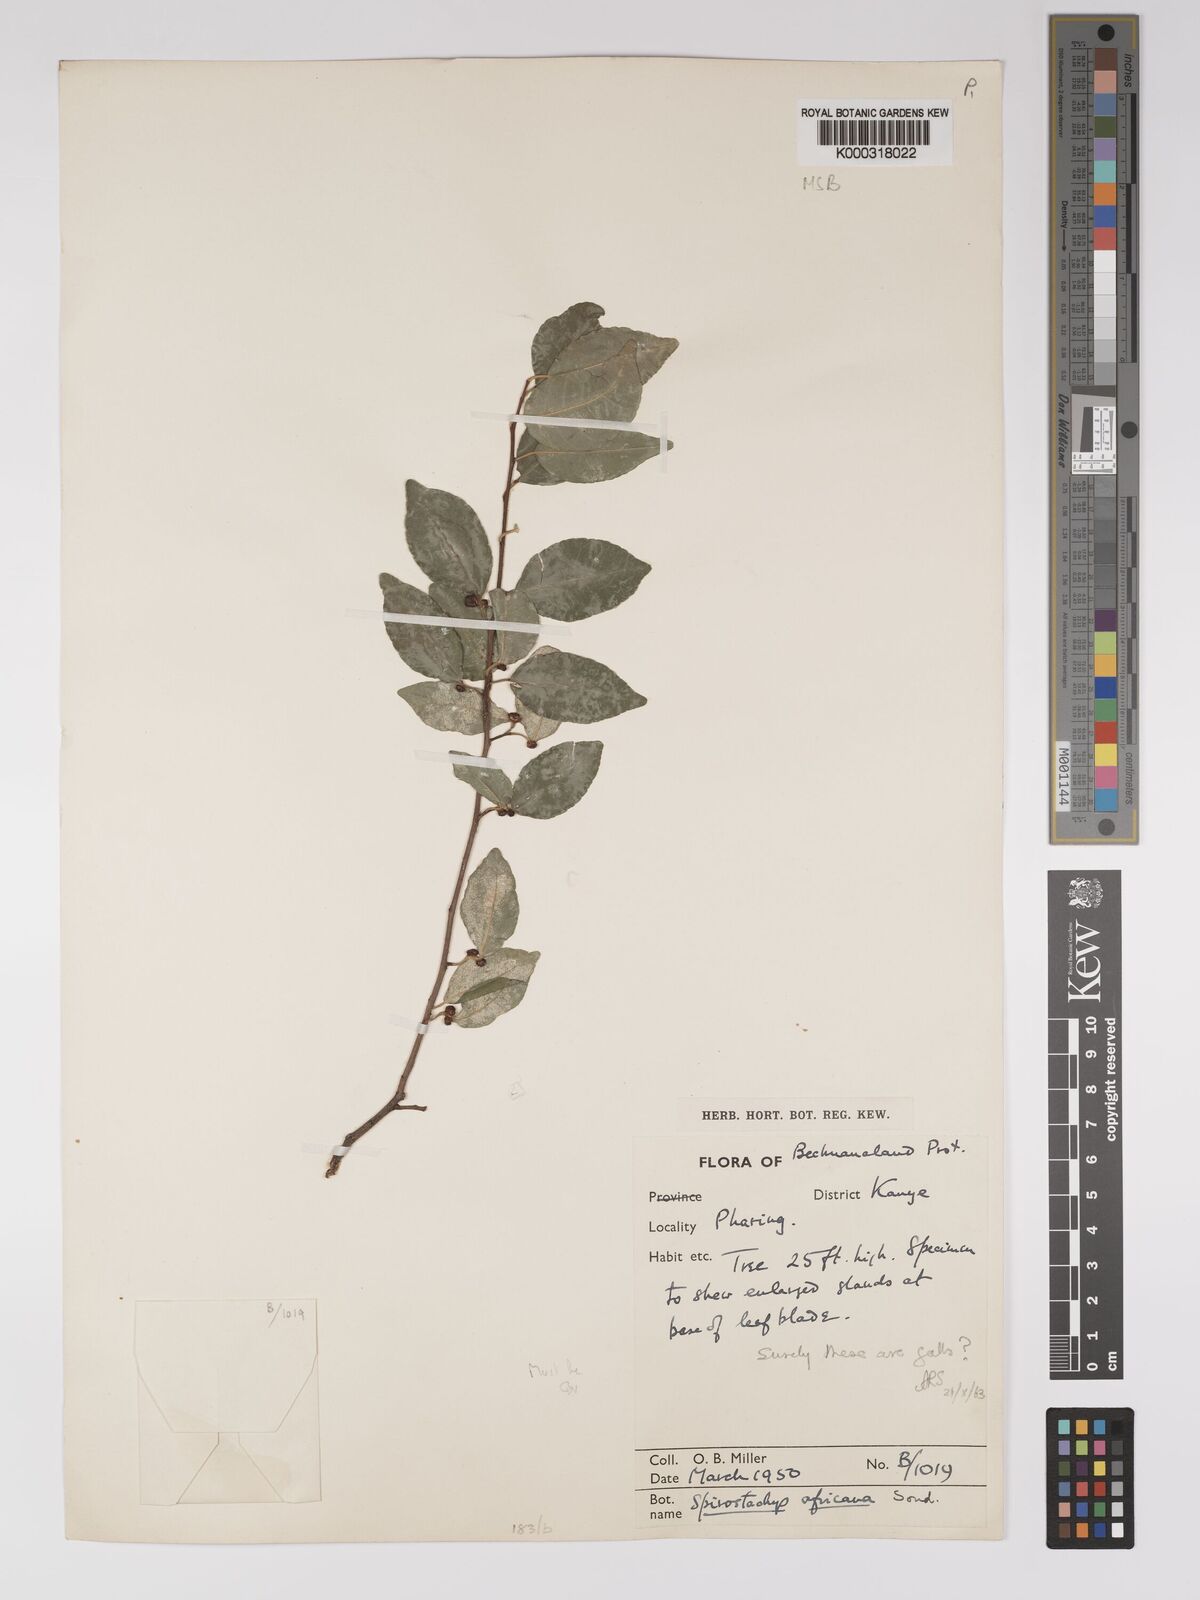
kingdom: Plantae
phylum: Tracheophyta
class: Magnoliopsida
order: Malpighiales
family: Euphorbiaceae
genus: Spirostachys
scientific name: Spirostachys africana
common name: Tamboti
